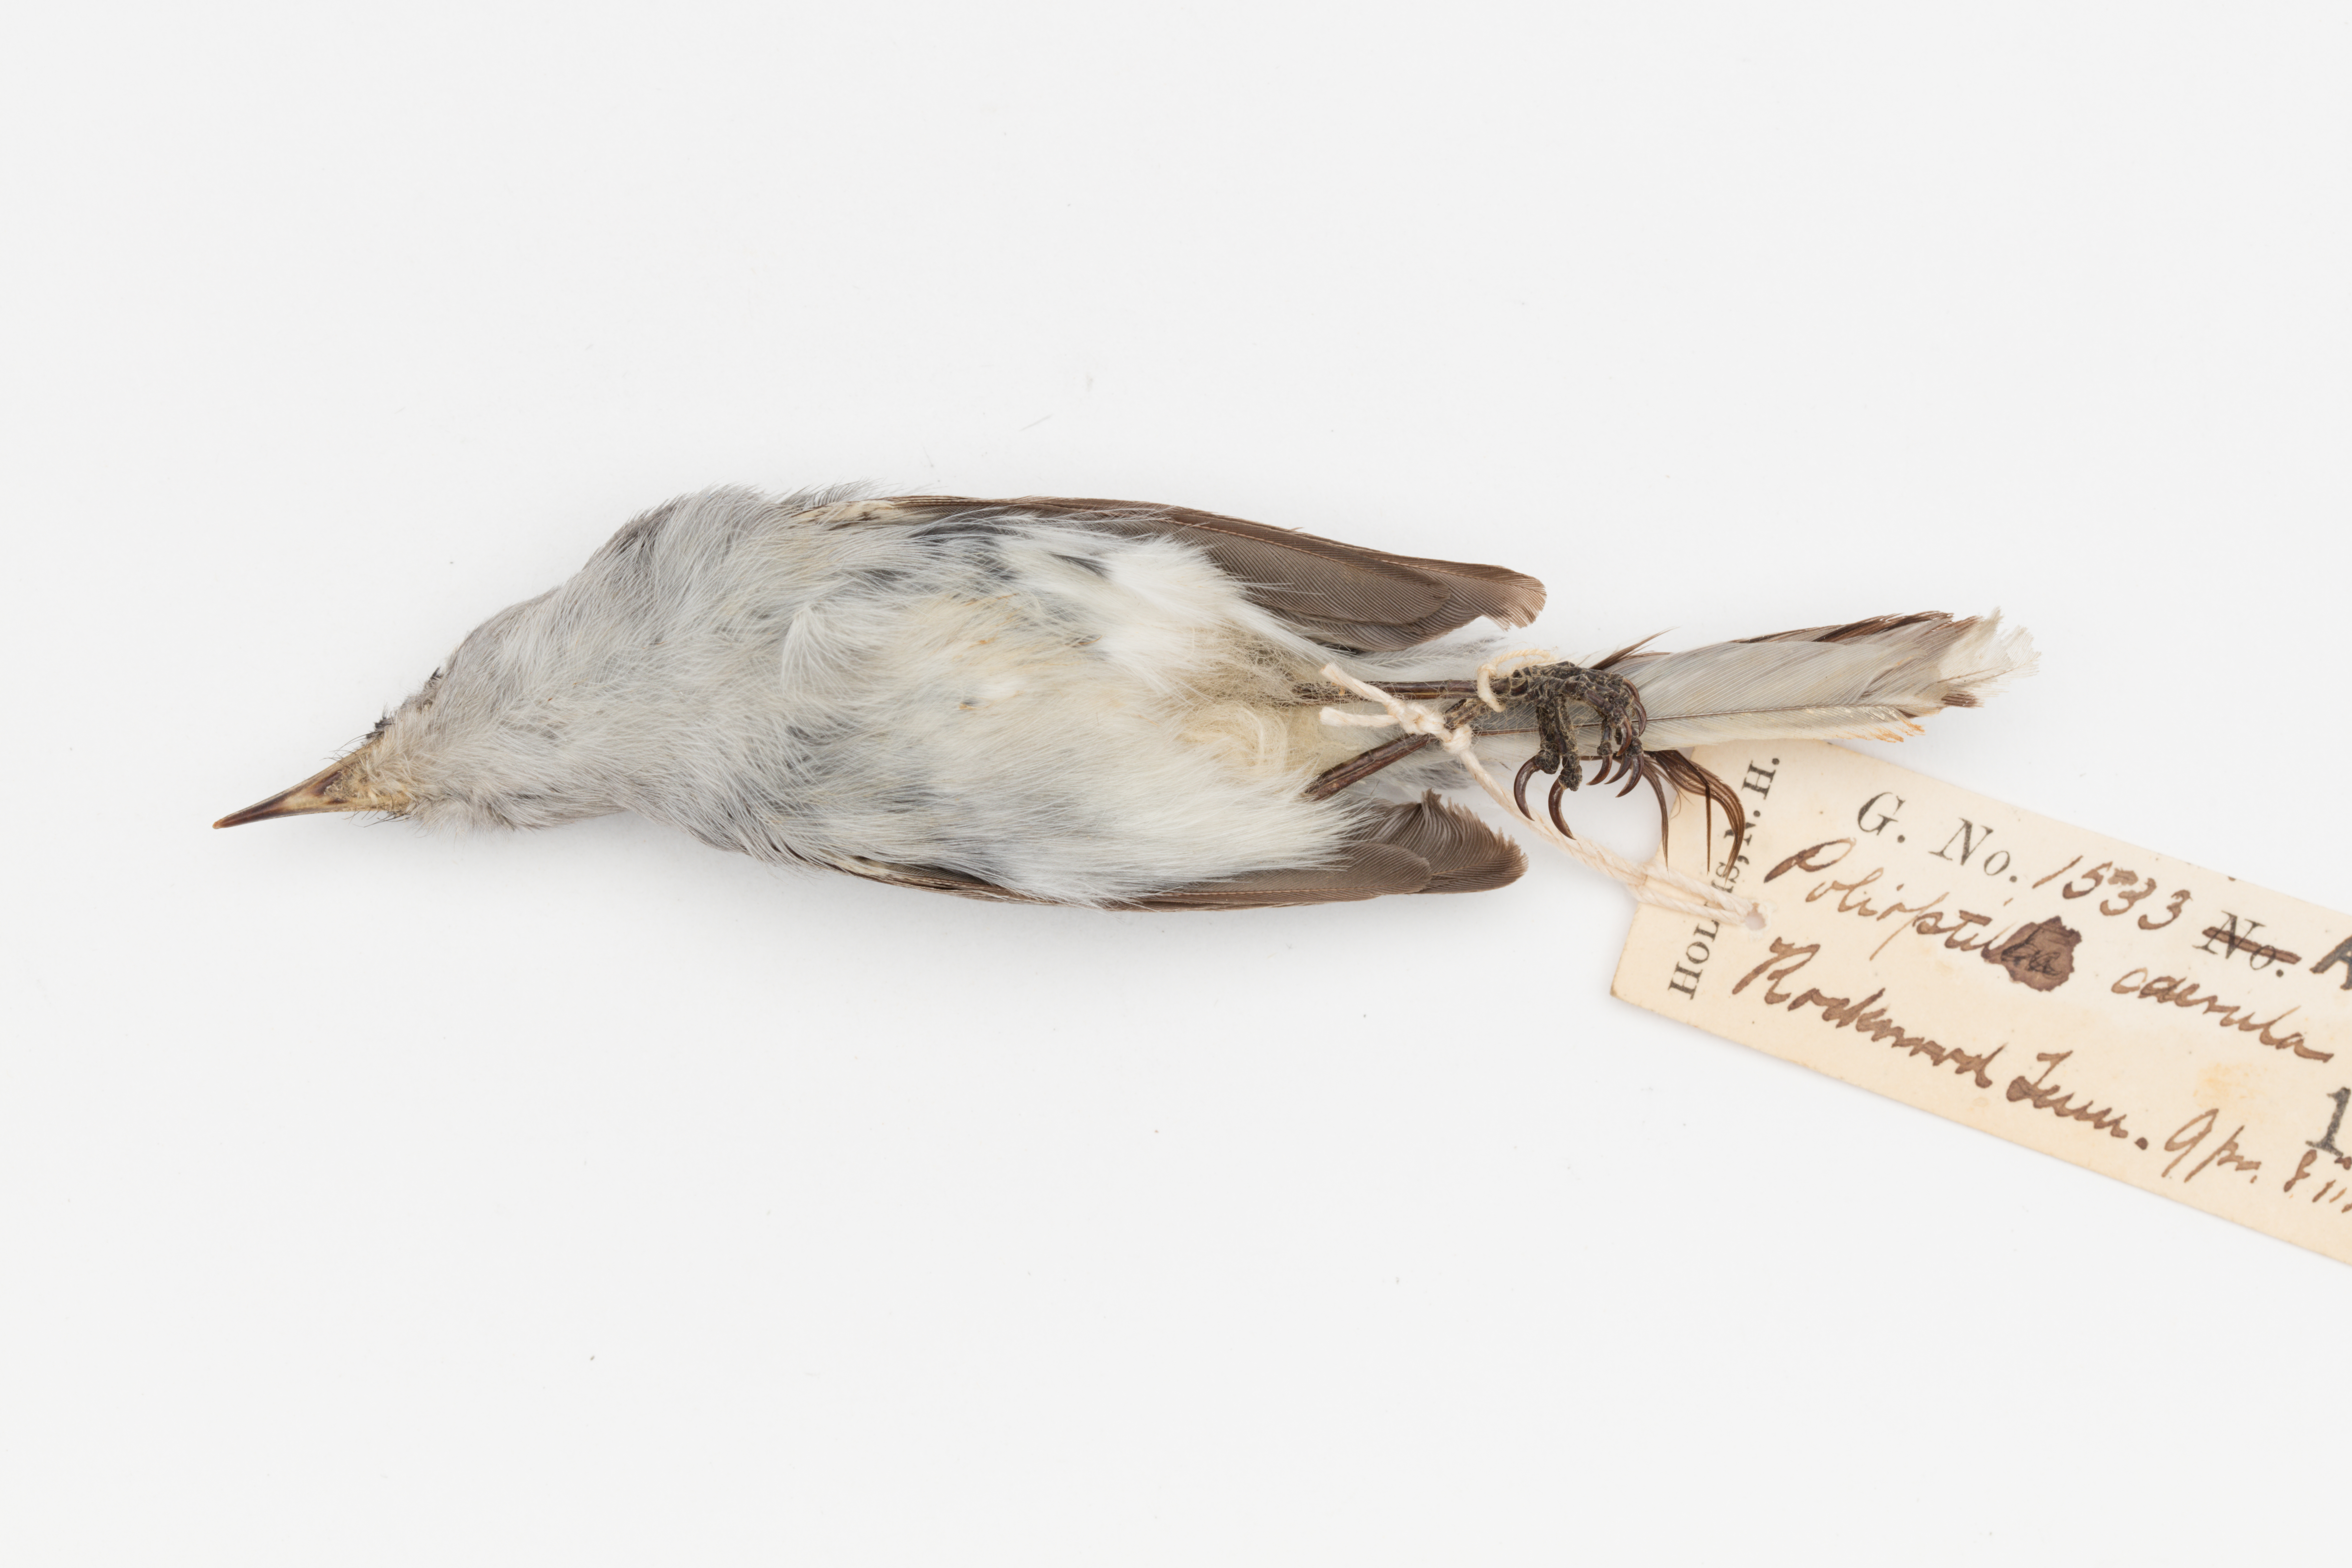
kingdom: Animalia
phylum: Chordata
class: Aves
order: Passeriformes
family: Polioptilidae
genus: Polioptila
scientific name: Polioptila caerulea
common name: Blue-gray gnatcatcher
